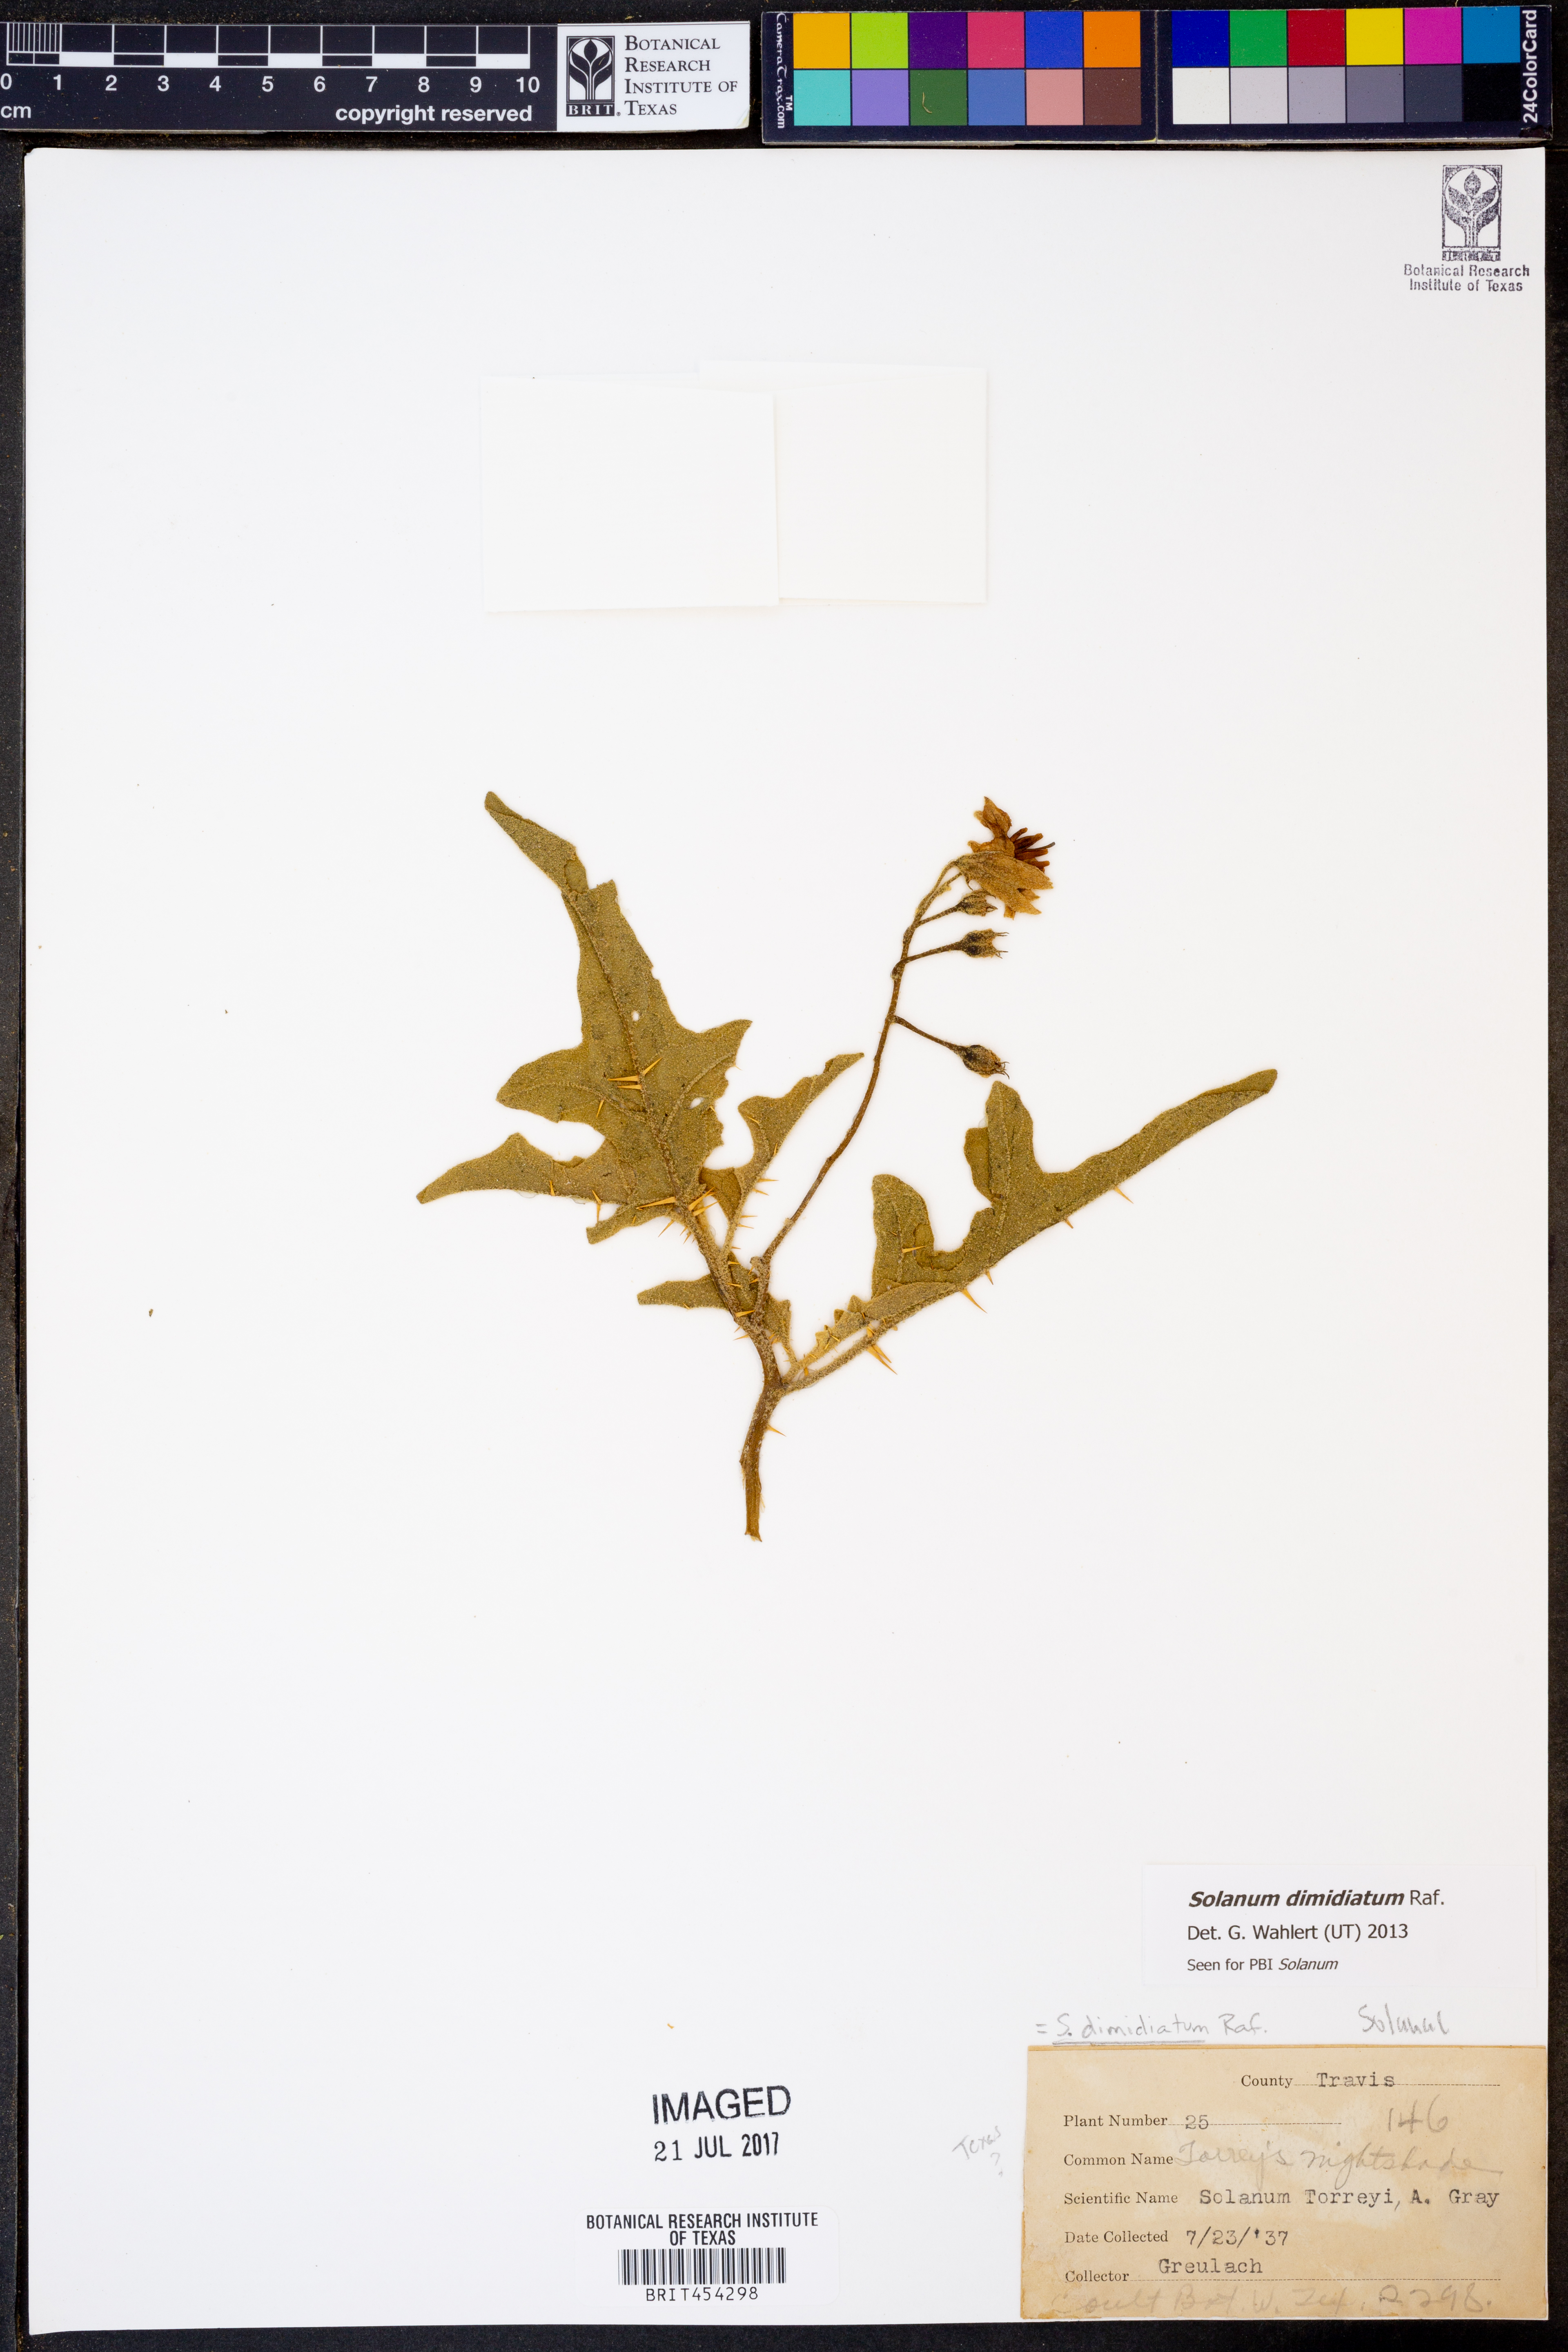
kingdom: Plantae
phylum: Tracheophyta
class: Magnoliopsida
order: Solanales
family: Solanaceae
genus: Solanum
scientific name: Solanum dimidiatum
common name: Carolina horse-nettle
